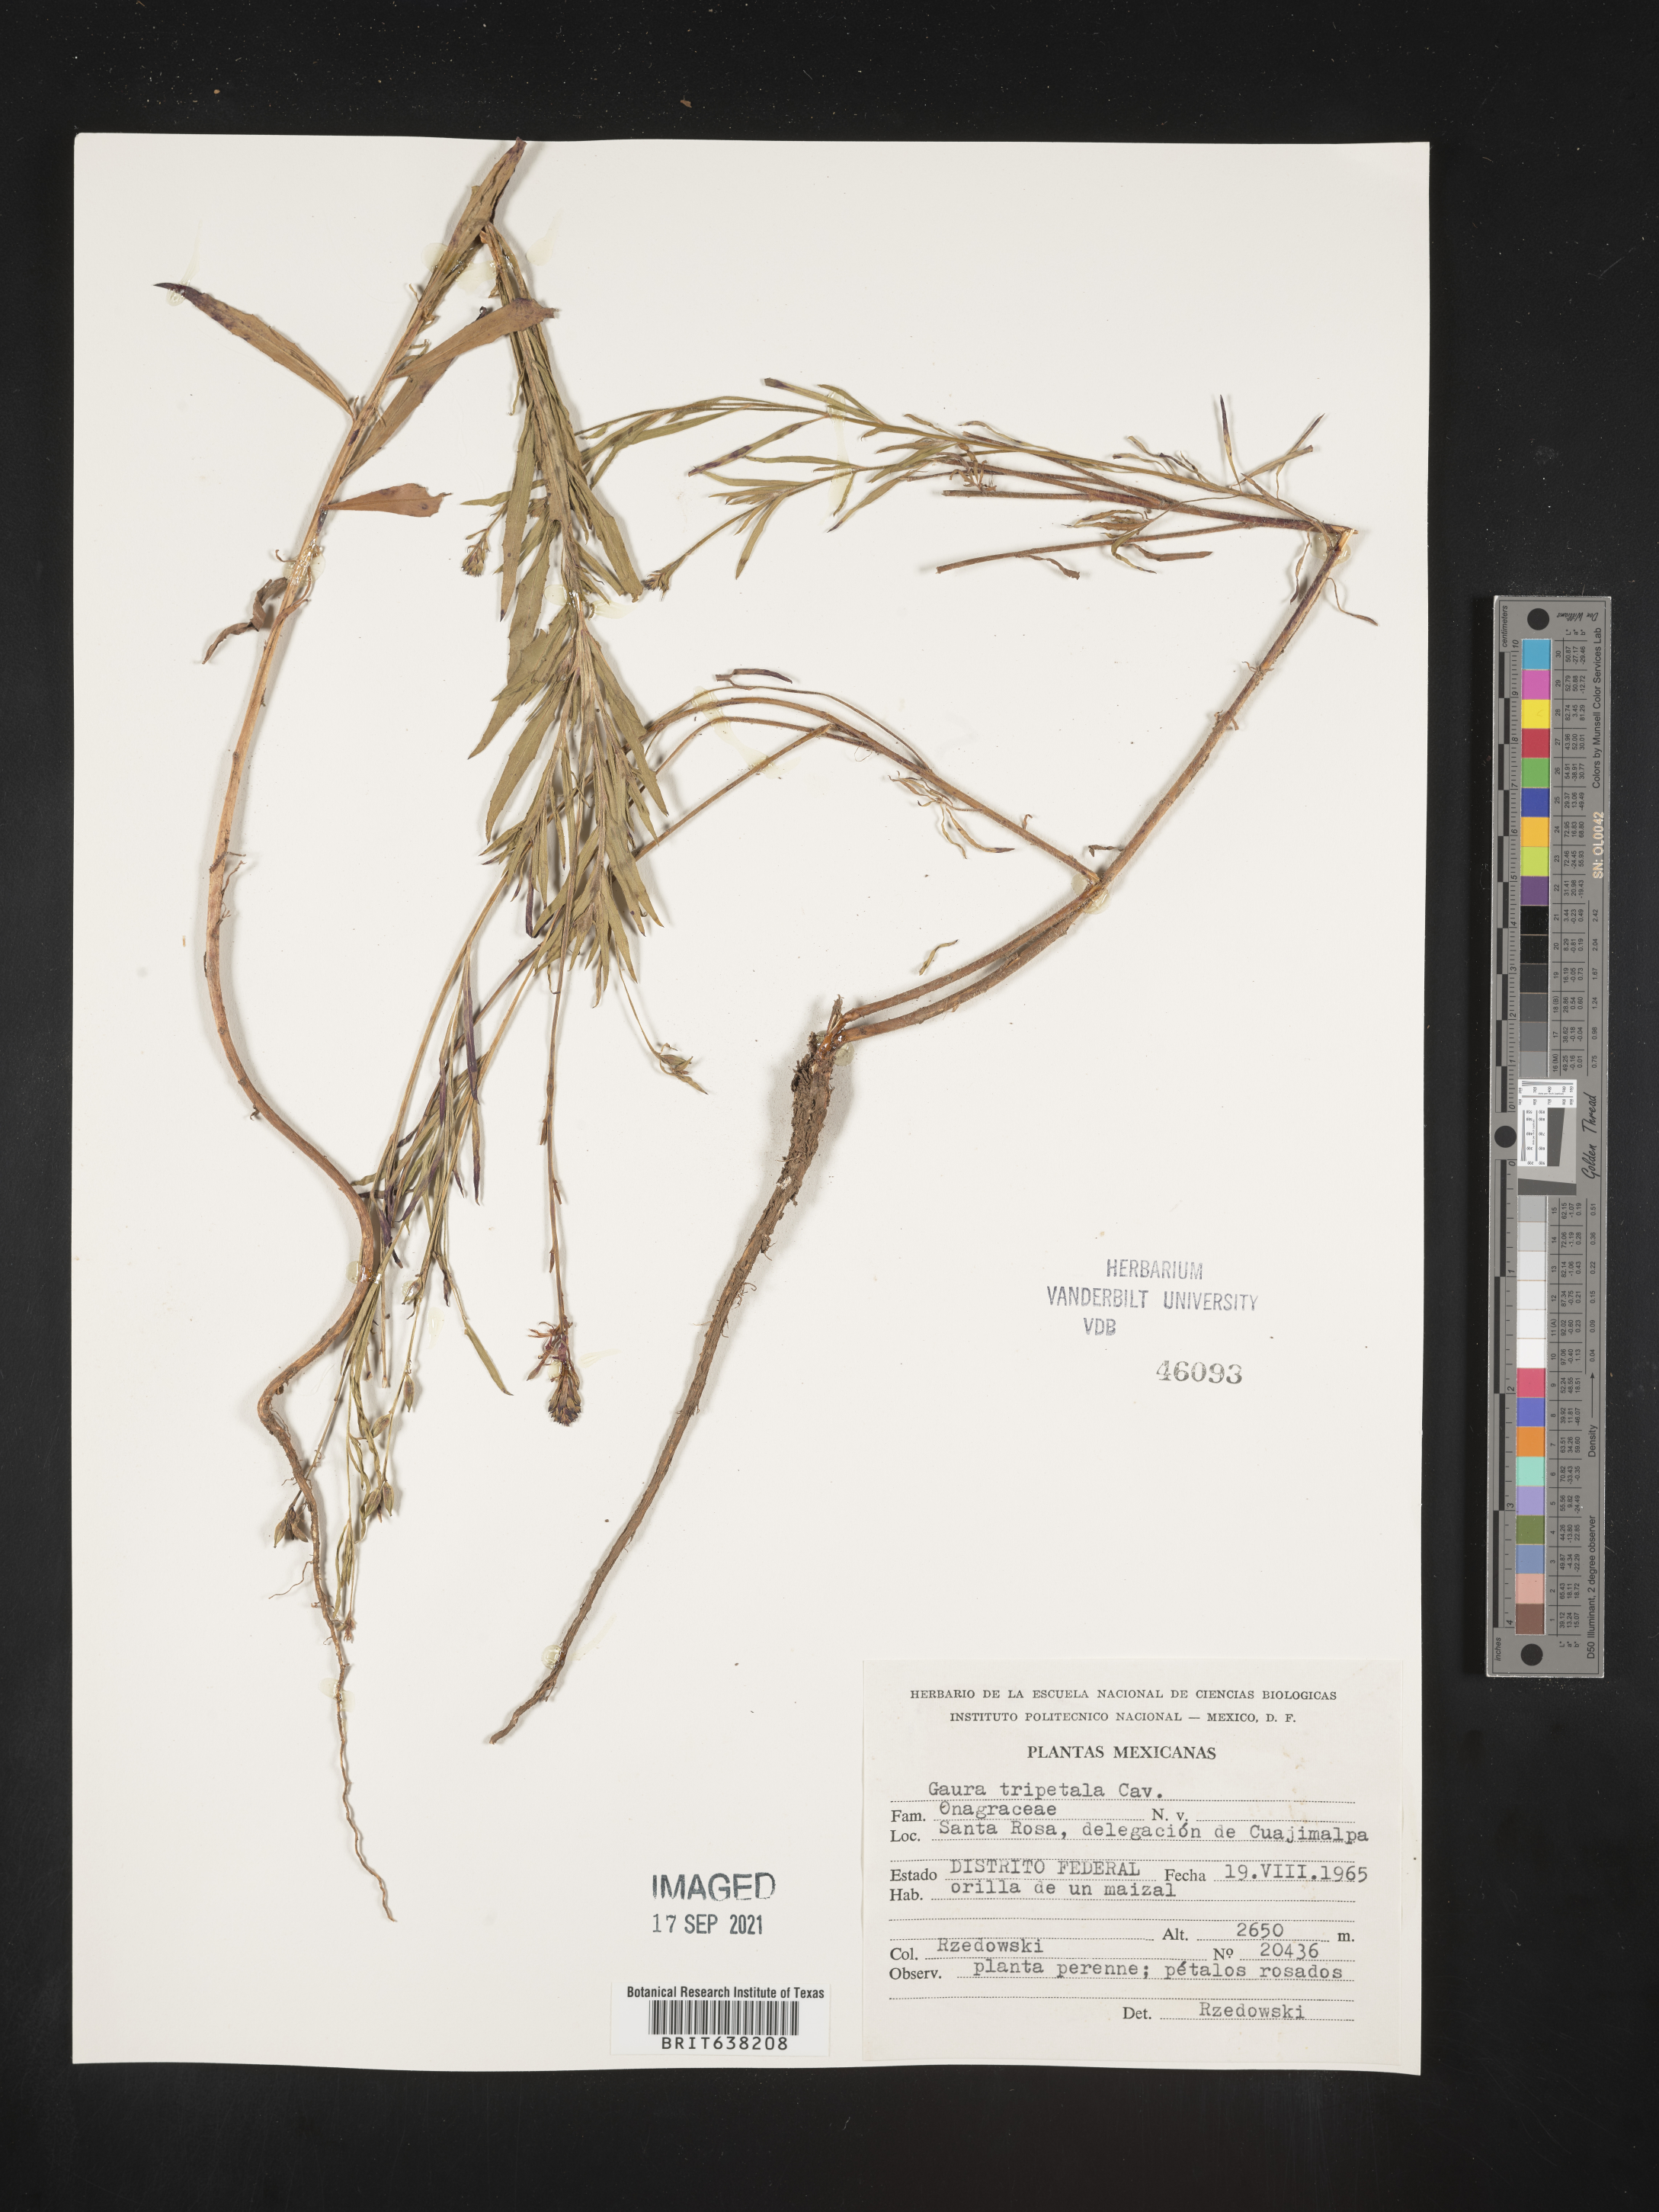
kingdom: Plantae
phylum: Tracheophyta
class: Magnoliopsida
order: Myrtales
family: Onagraceae
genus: Oenothera
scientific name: Oenothera
